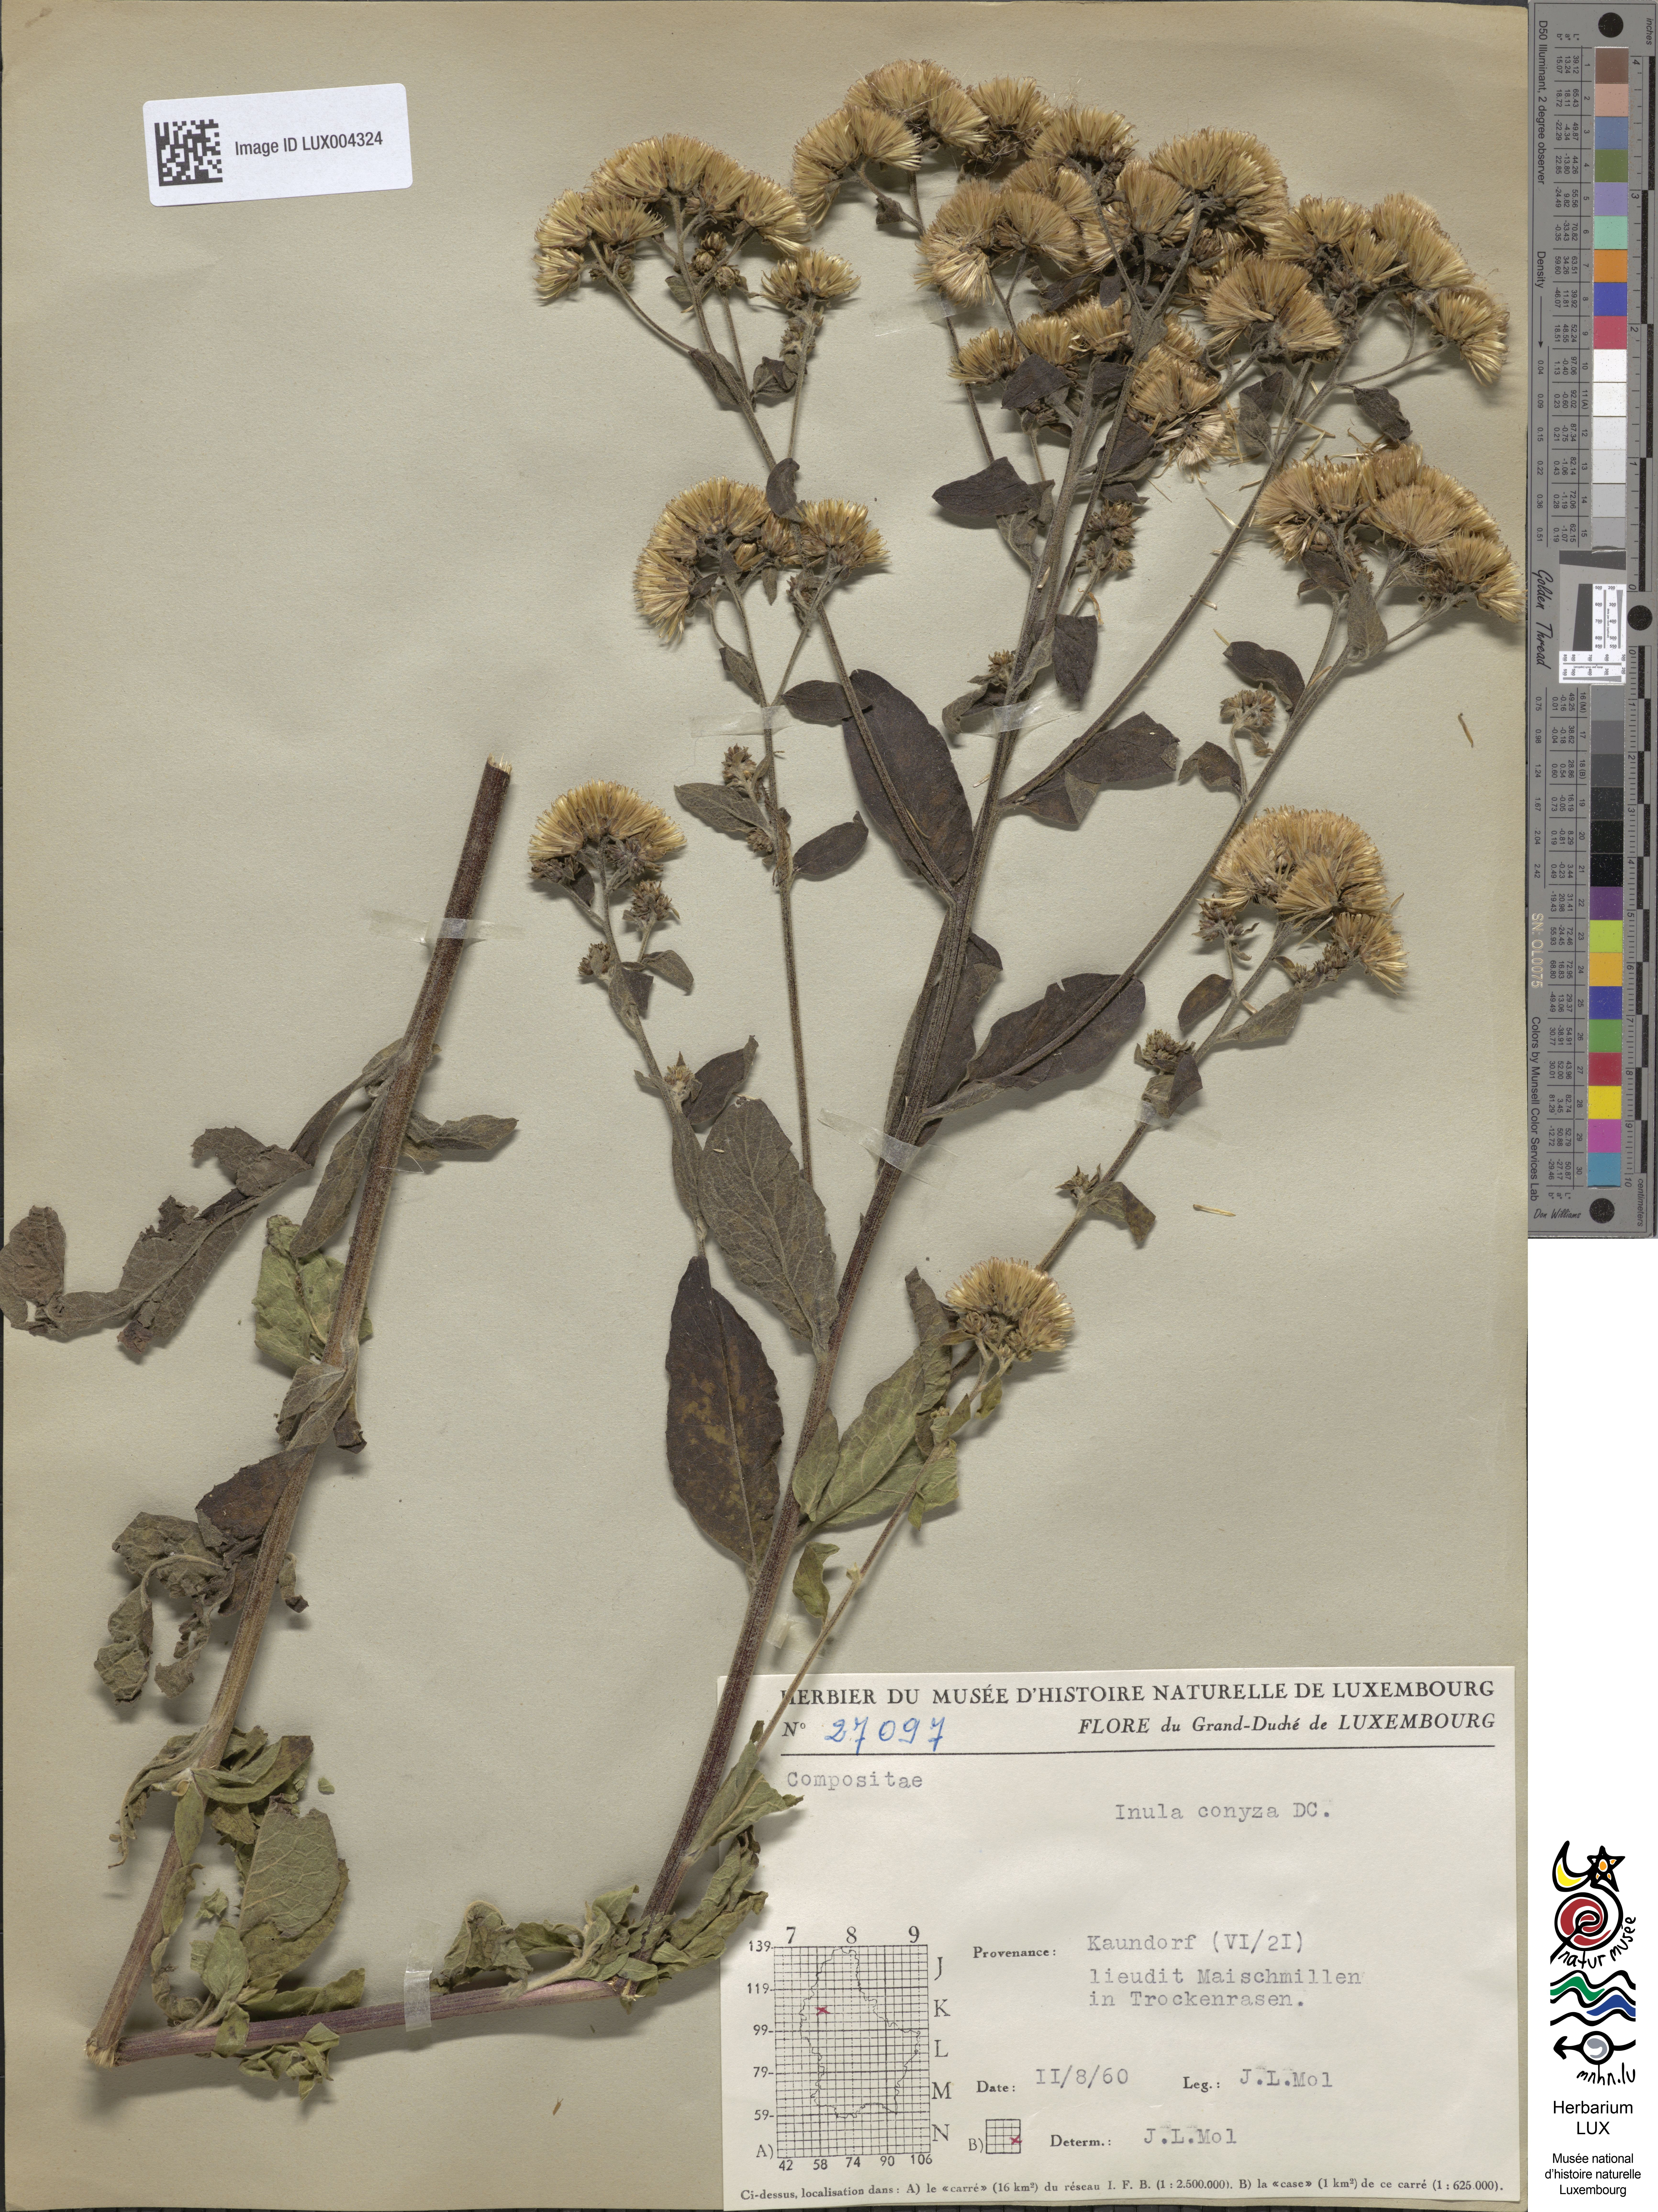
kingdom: Plantae
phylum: Tracheophyta
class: Magnoliopsida
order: Asterales
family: Asteraceae
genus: Pentanema
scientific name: Pentanema squarrosum
